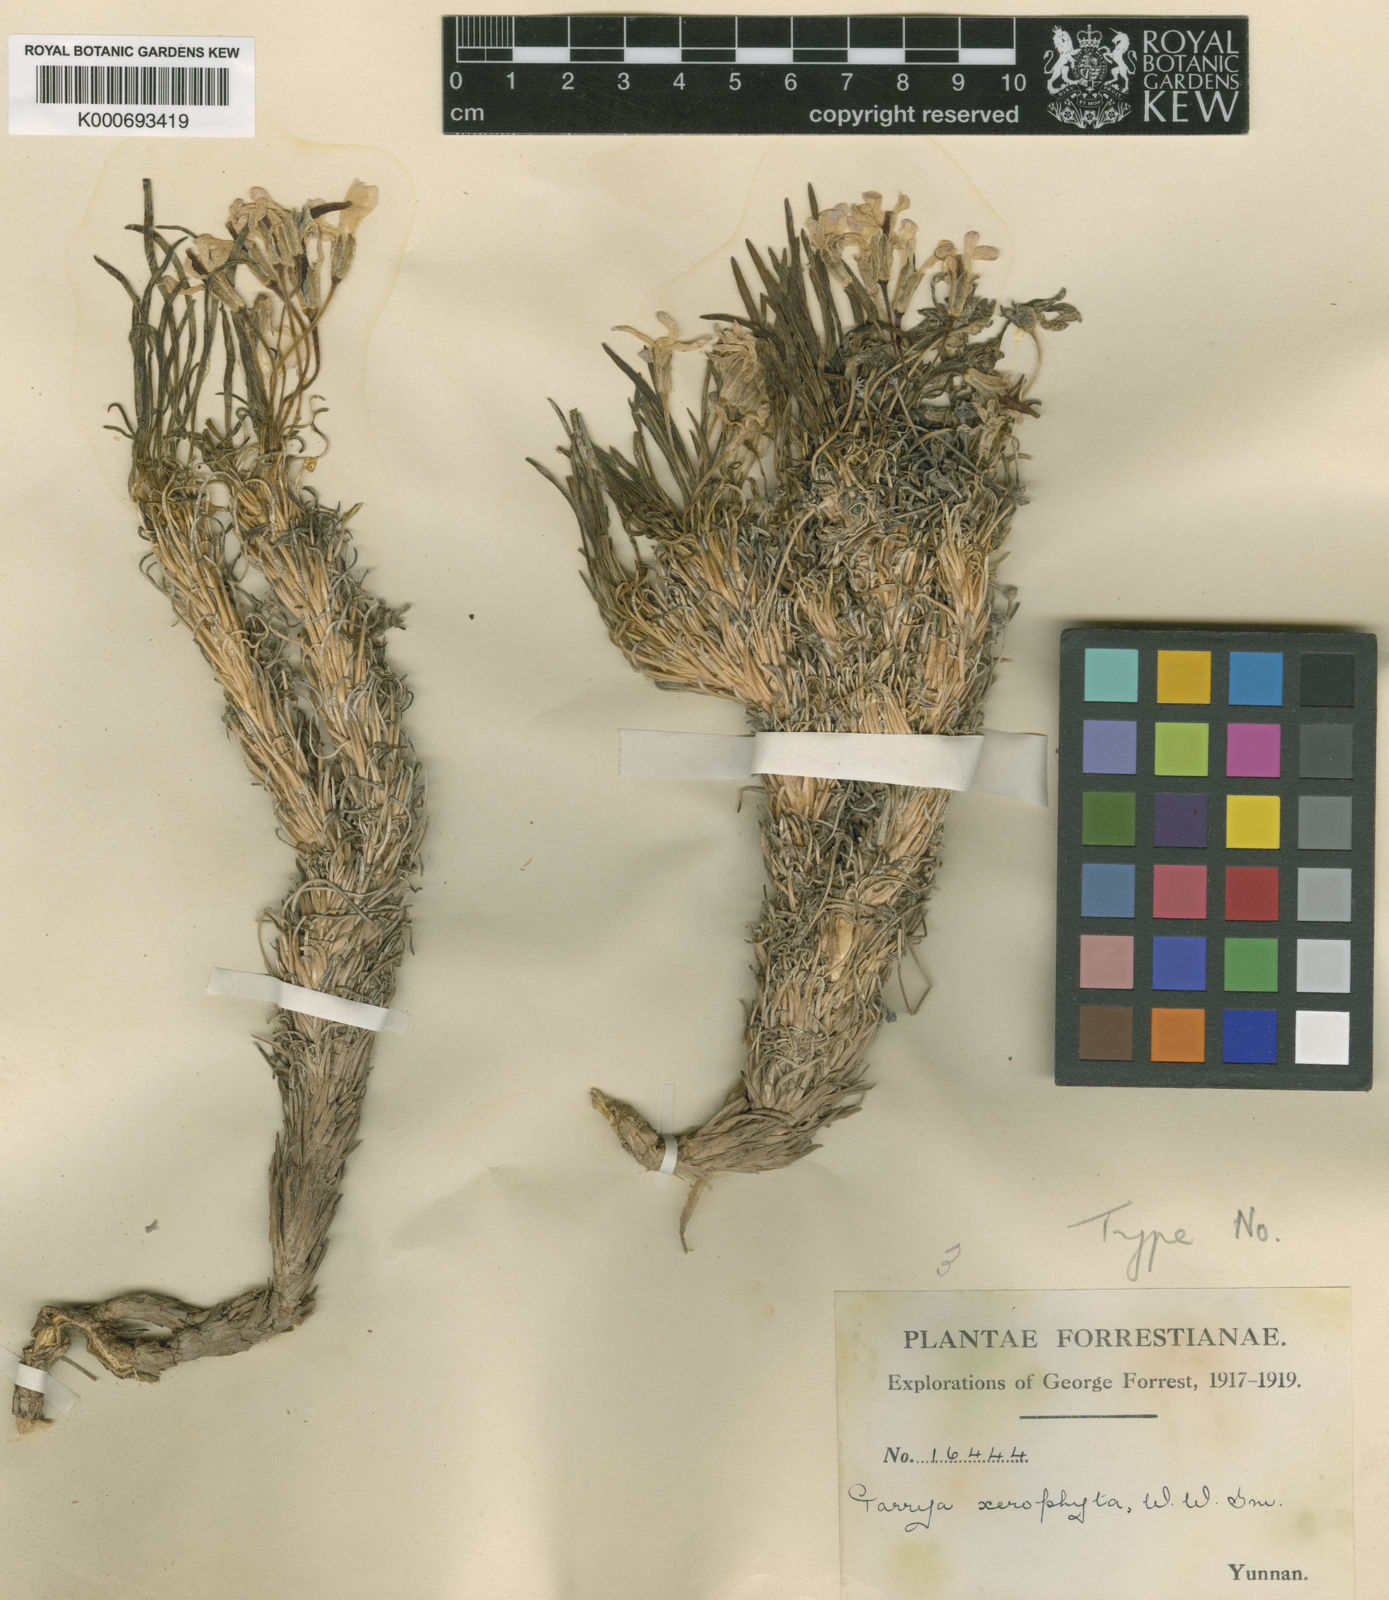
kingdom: Plantae
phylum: Tracheophyta
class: Magnoliopsida
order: Brassicales
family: Brassicaceae
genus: Solms-laubachia
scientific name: Solms-laubachia xerophyta
